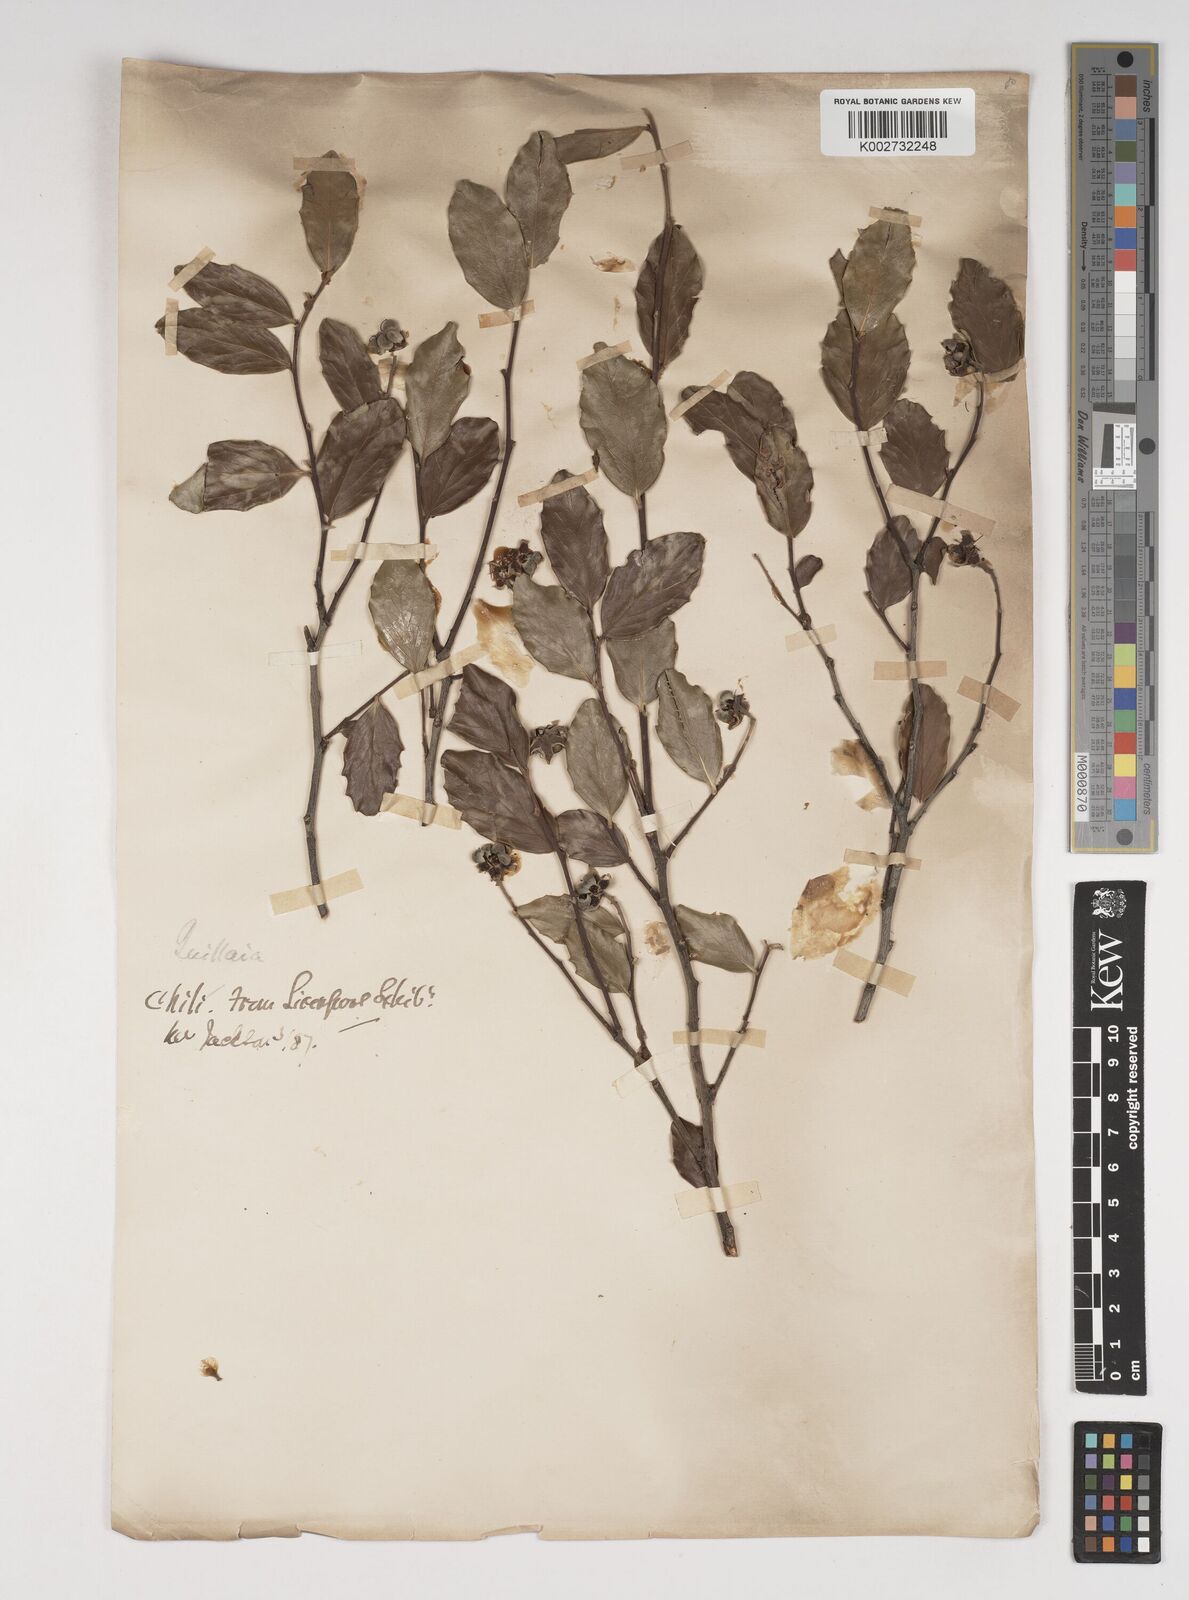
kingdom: Plantae
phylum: Tracheophyta
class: Magnoliopsida
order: Fabales
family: Quillajaceae
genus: Quillaja
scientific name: Quillaja saponaria
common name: Murillo's-bark
